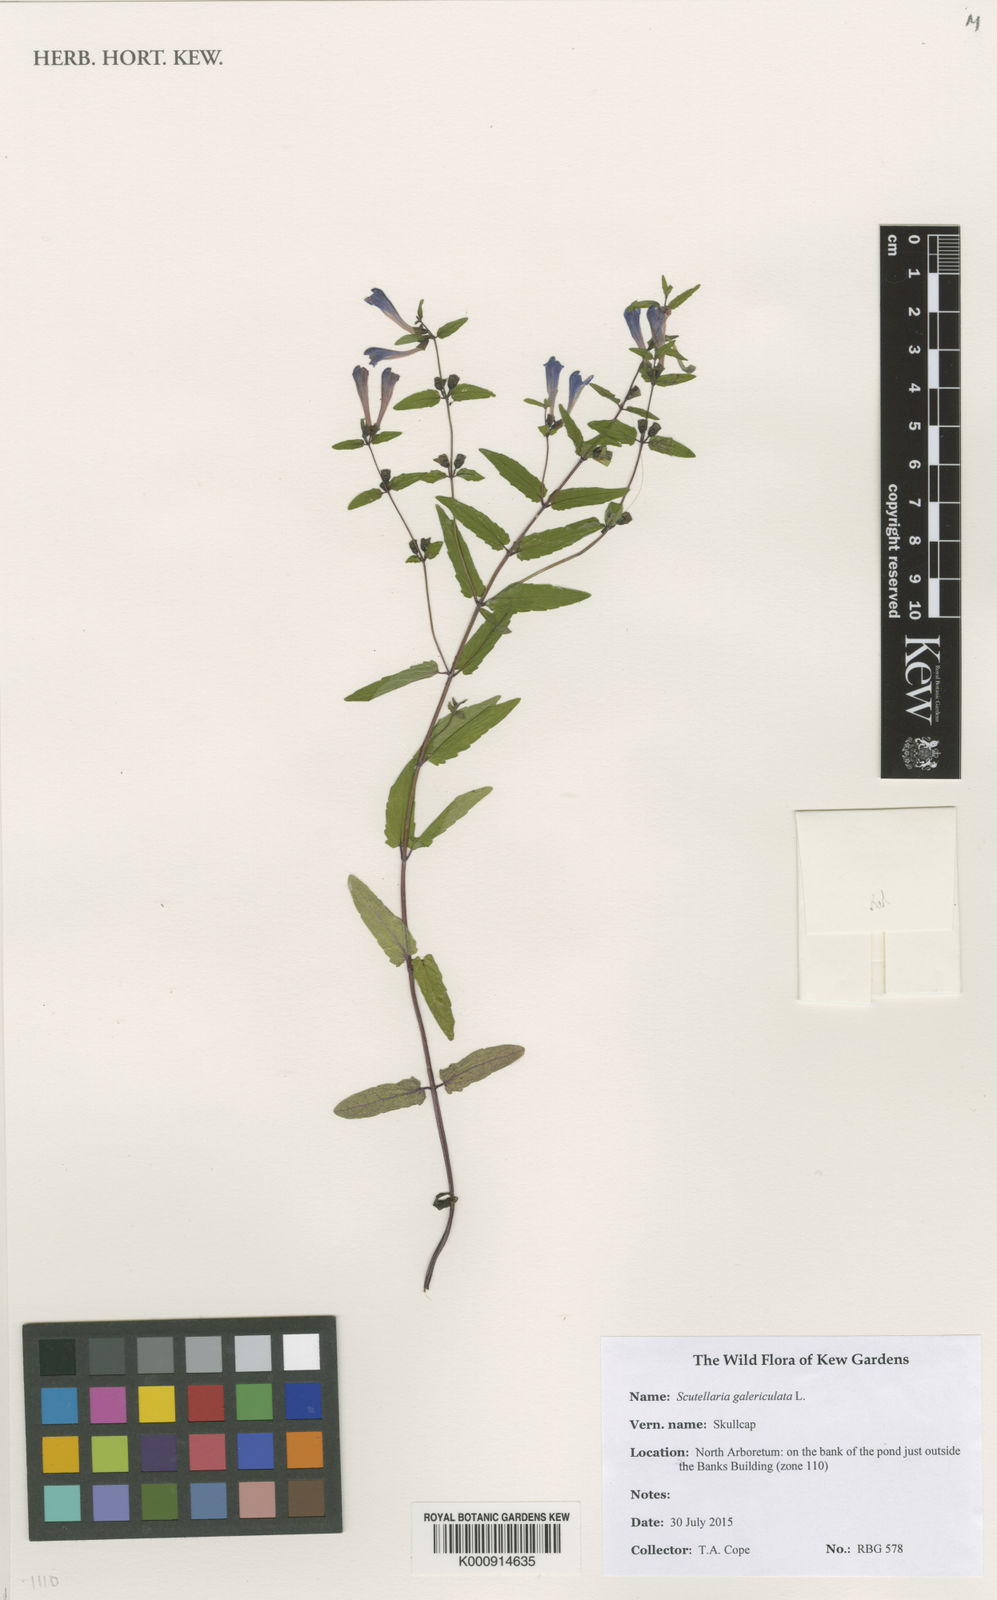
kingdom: Plantae
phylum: Tracheophyta
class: Magnoliopsida
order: Lamiales
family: Lamiaceae
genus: Scutellaria
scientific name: Scutellaria galericulata
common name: Skullcap
